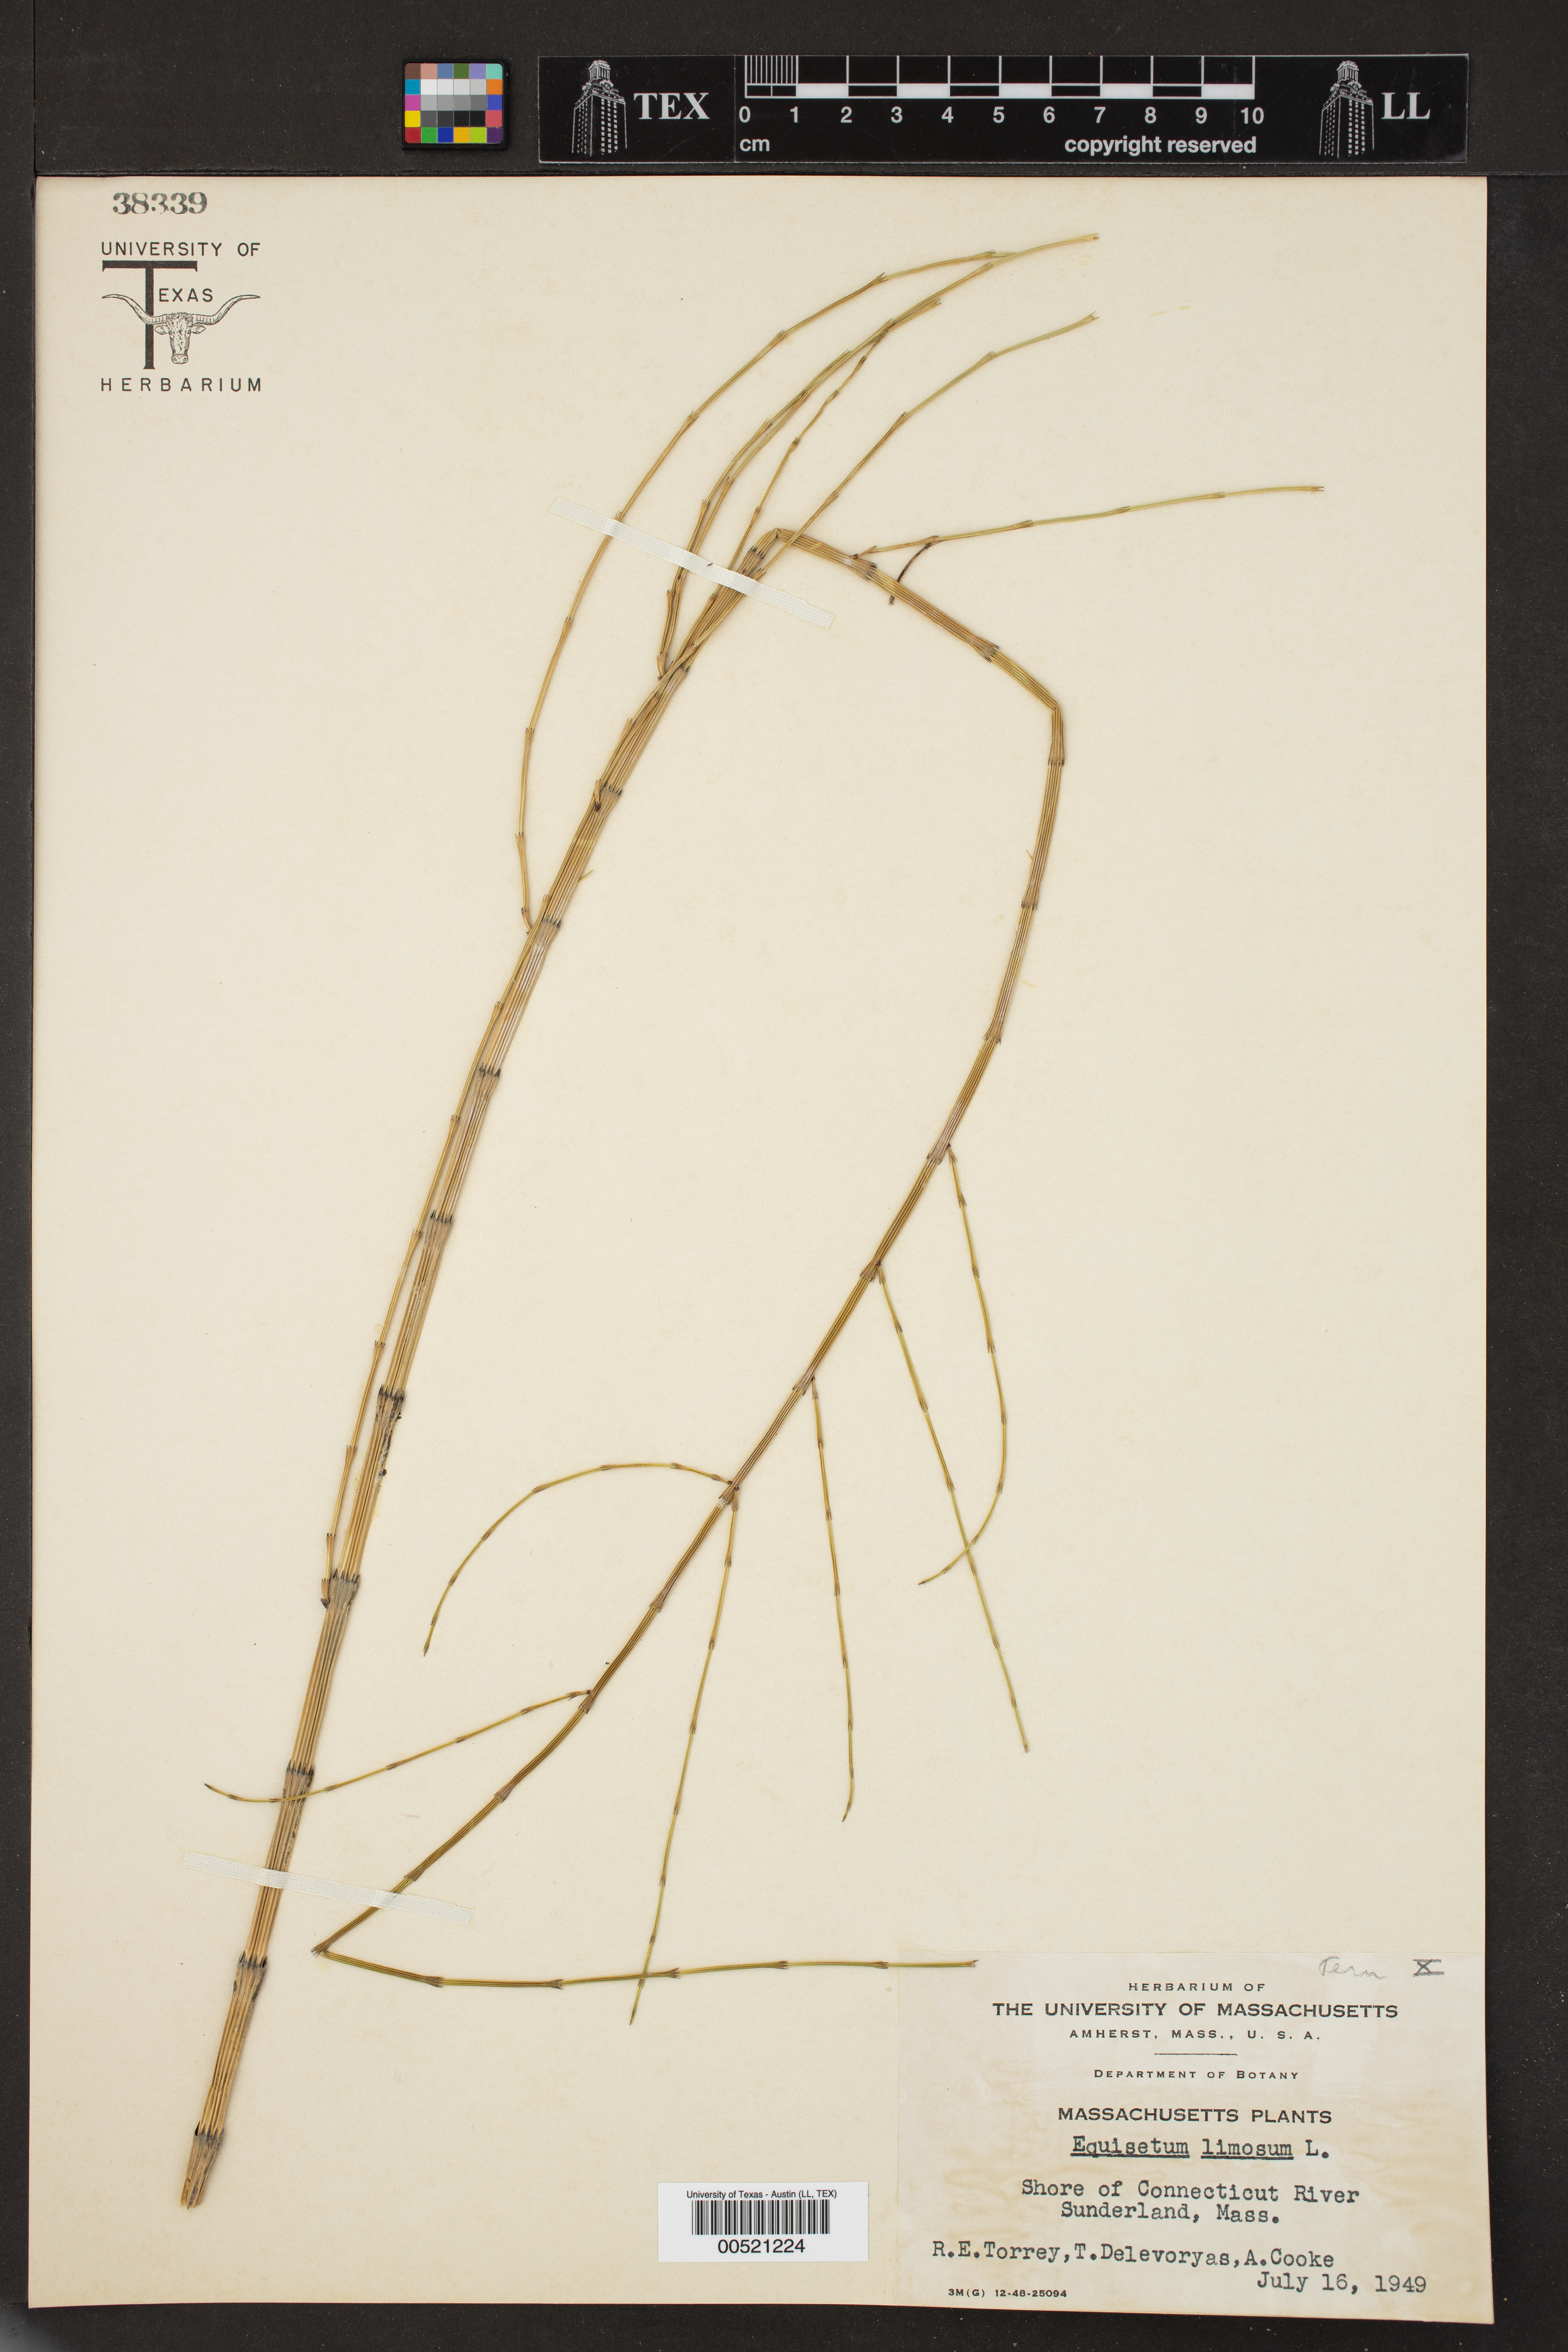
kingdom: Plantae
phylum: Tracheophyta
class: Polypodiopsida
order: Equisetales
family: Equisetaceae
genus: Equisetum
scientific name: Equisetum fluviatile
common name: Water horsetail
